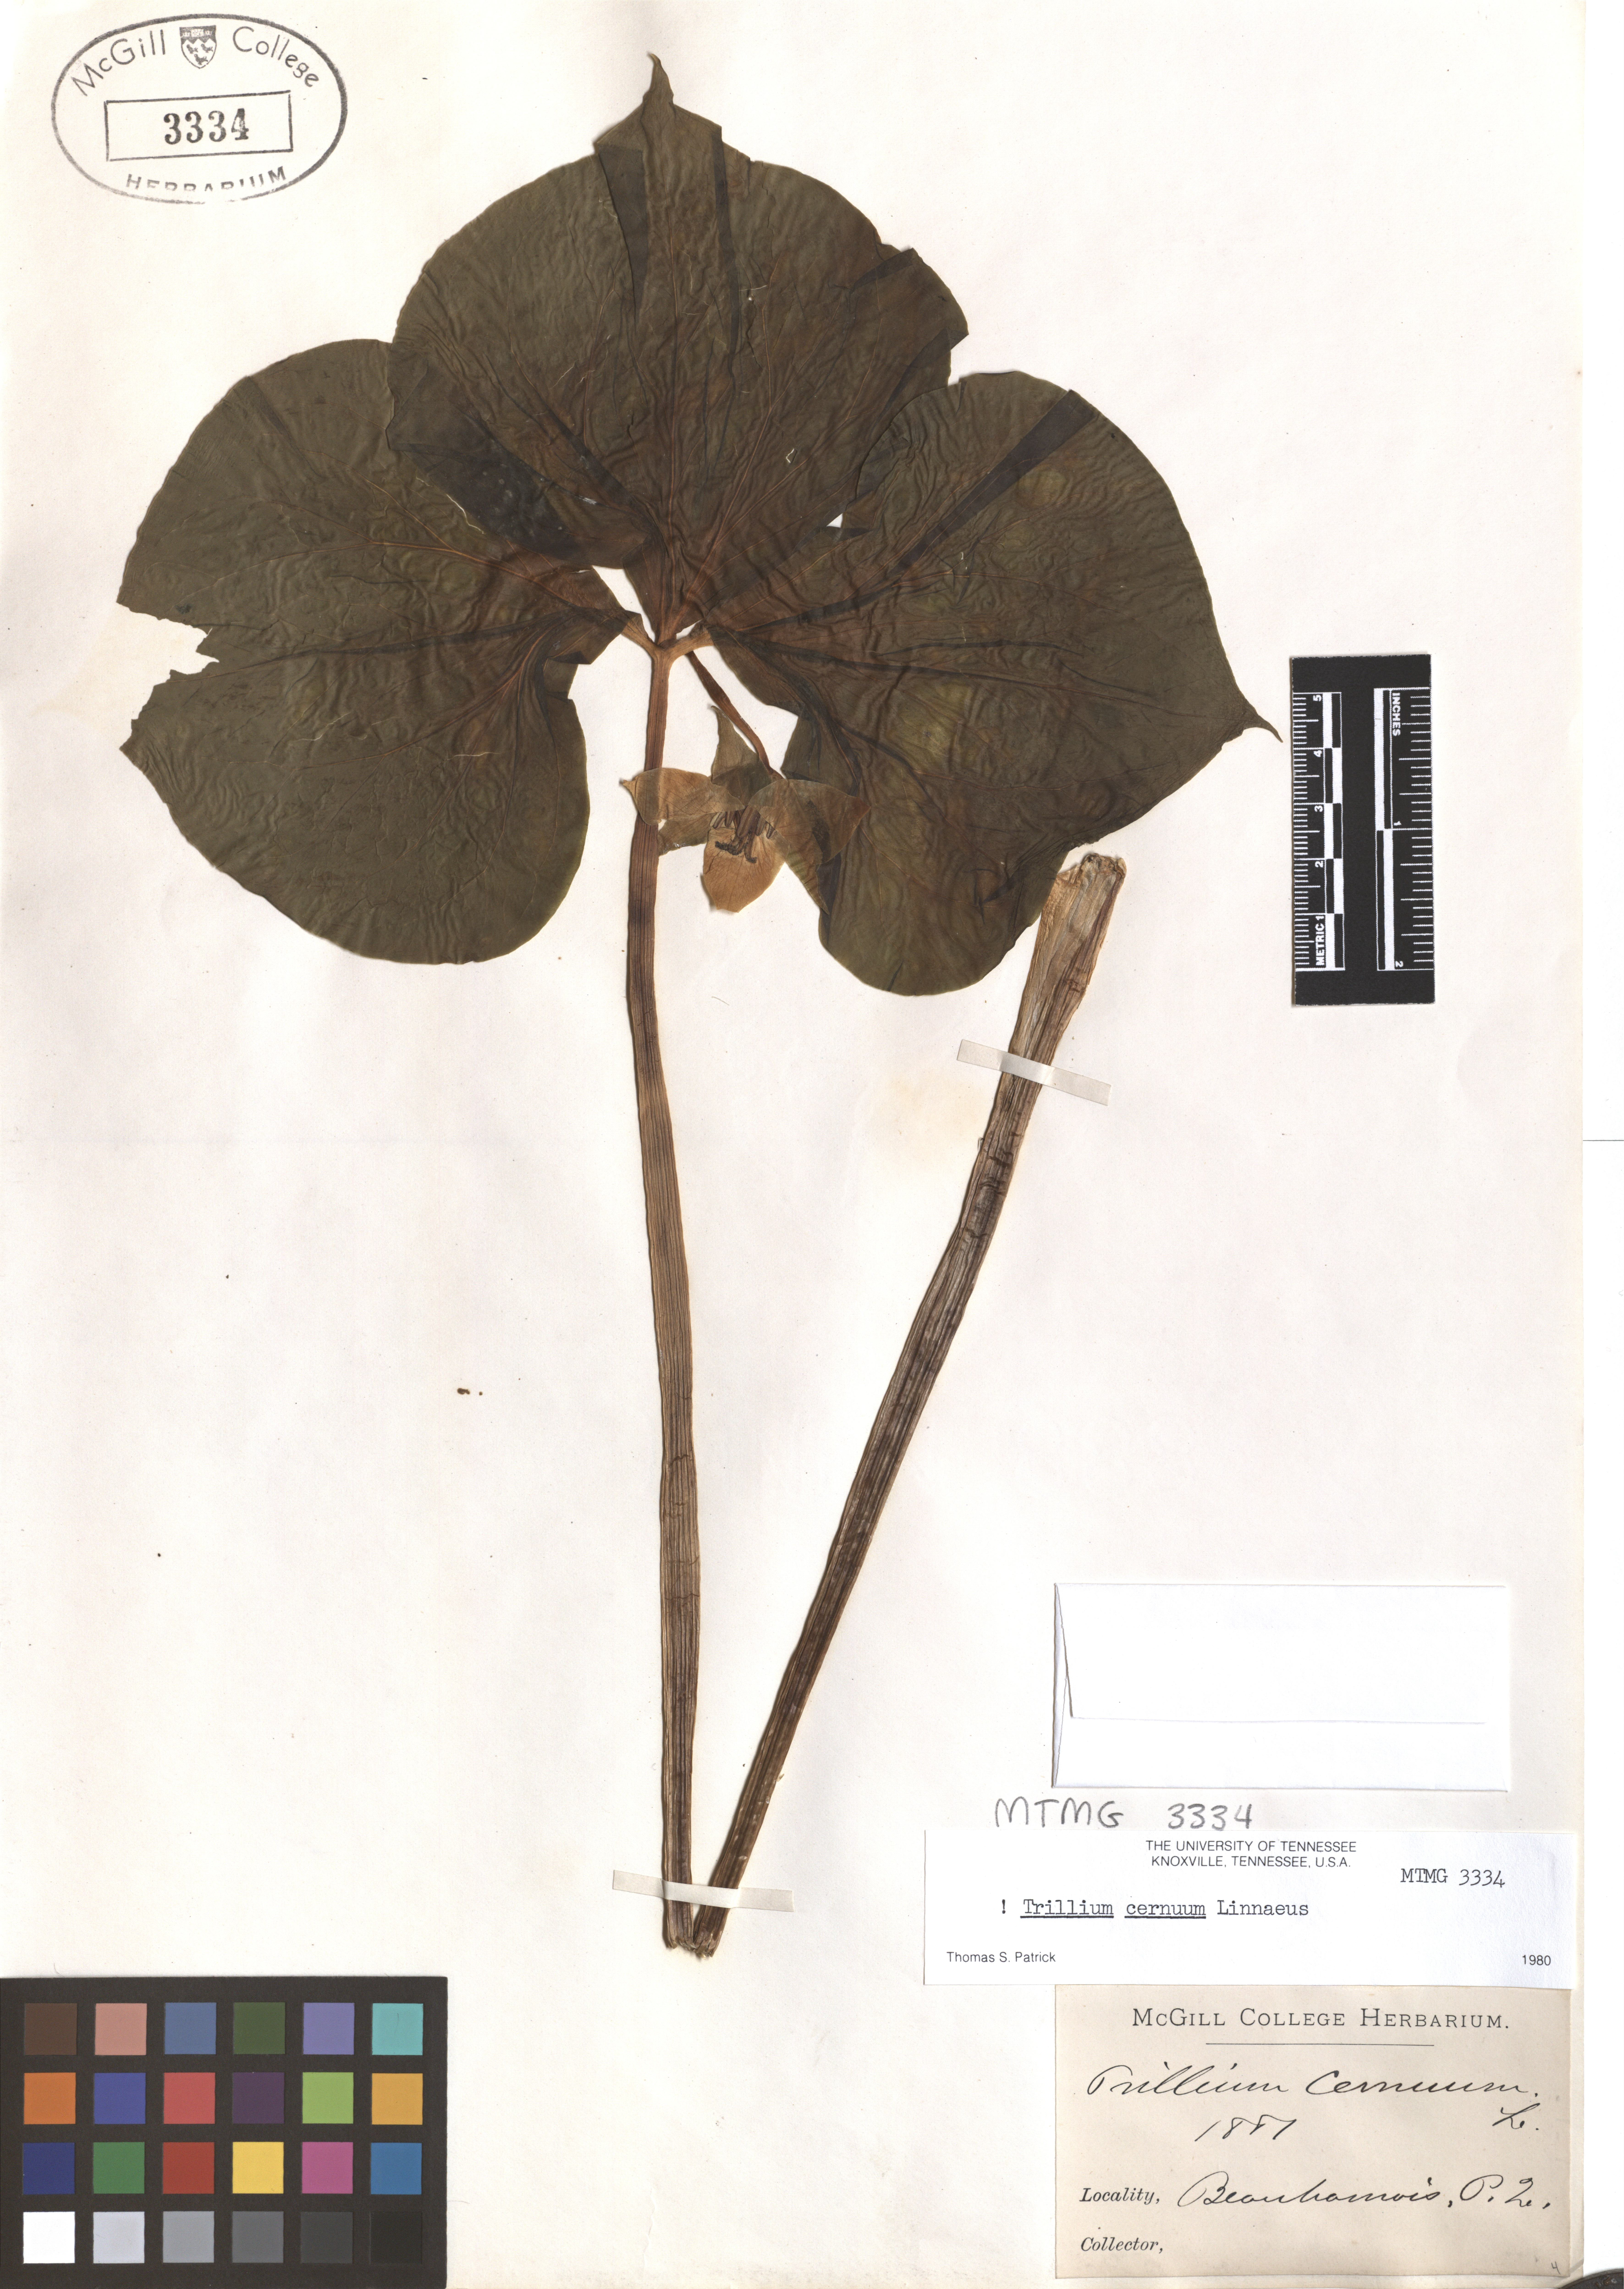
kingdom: Plantae
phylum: Tracheophyta
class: Liliopsida
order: Liliales
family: Melanthiaceae
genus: Trillium
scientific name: Trillium cernuum
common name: Nodding trillium
